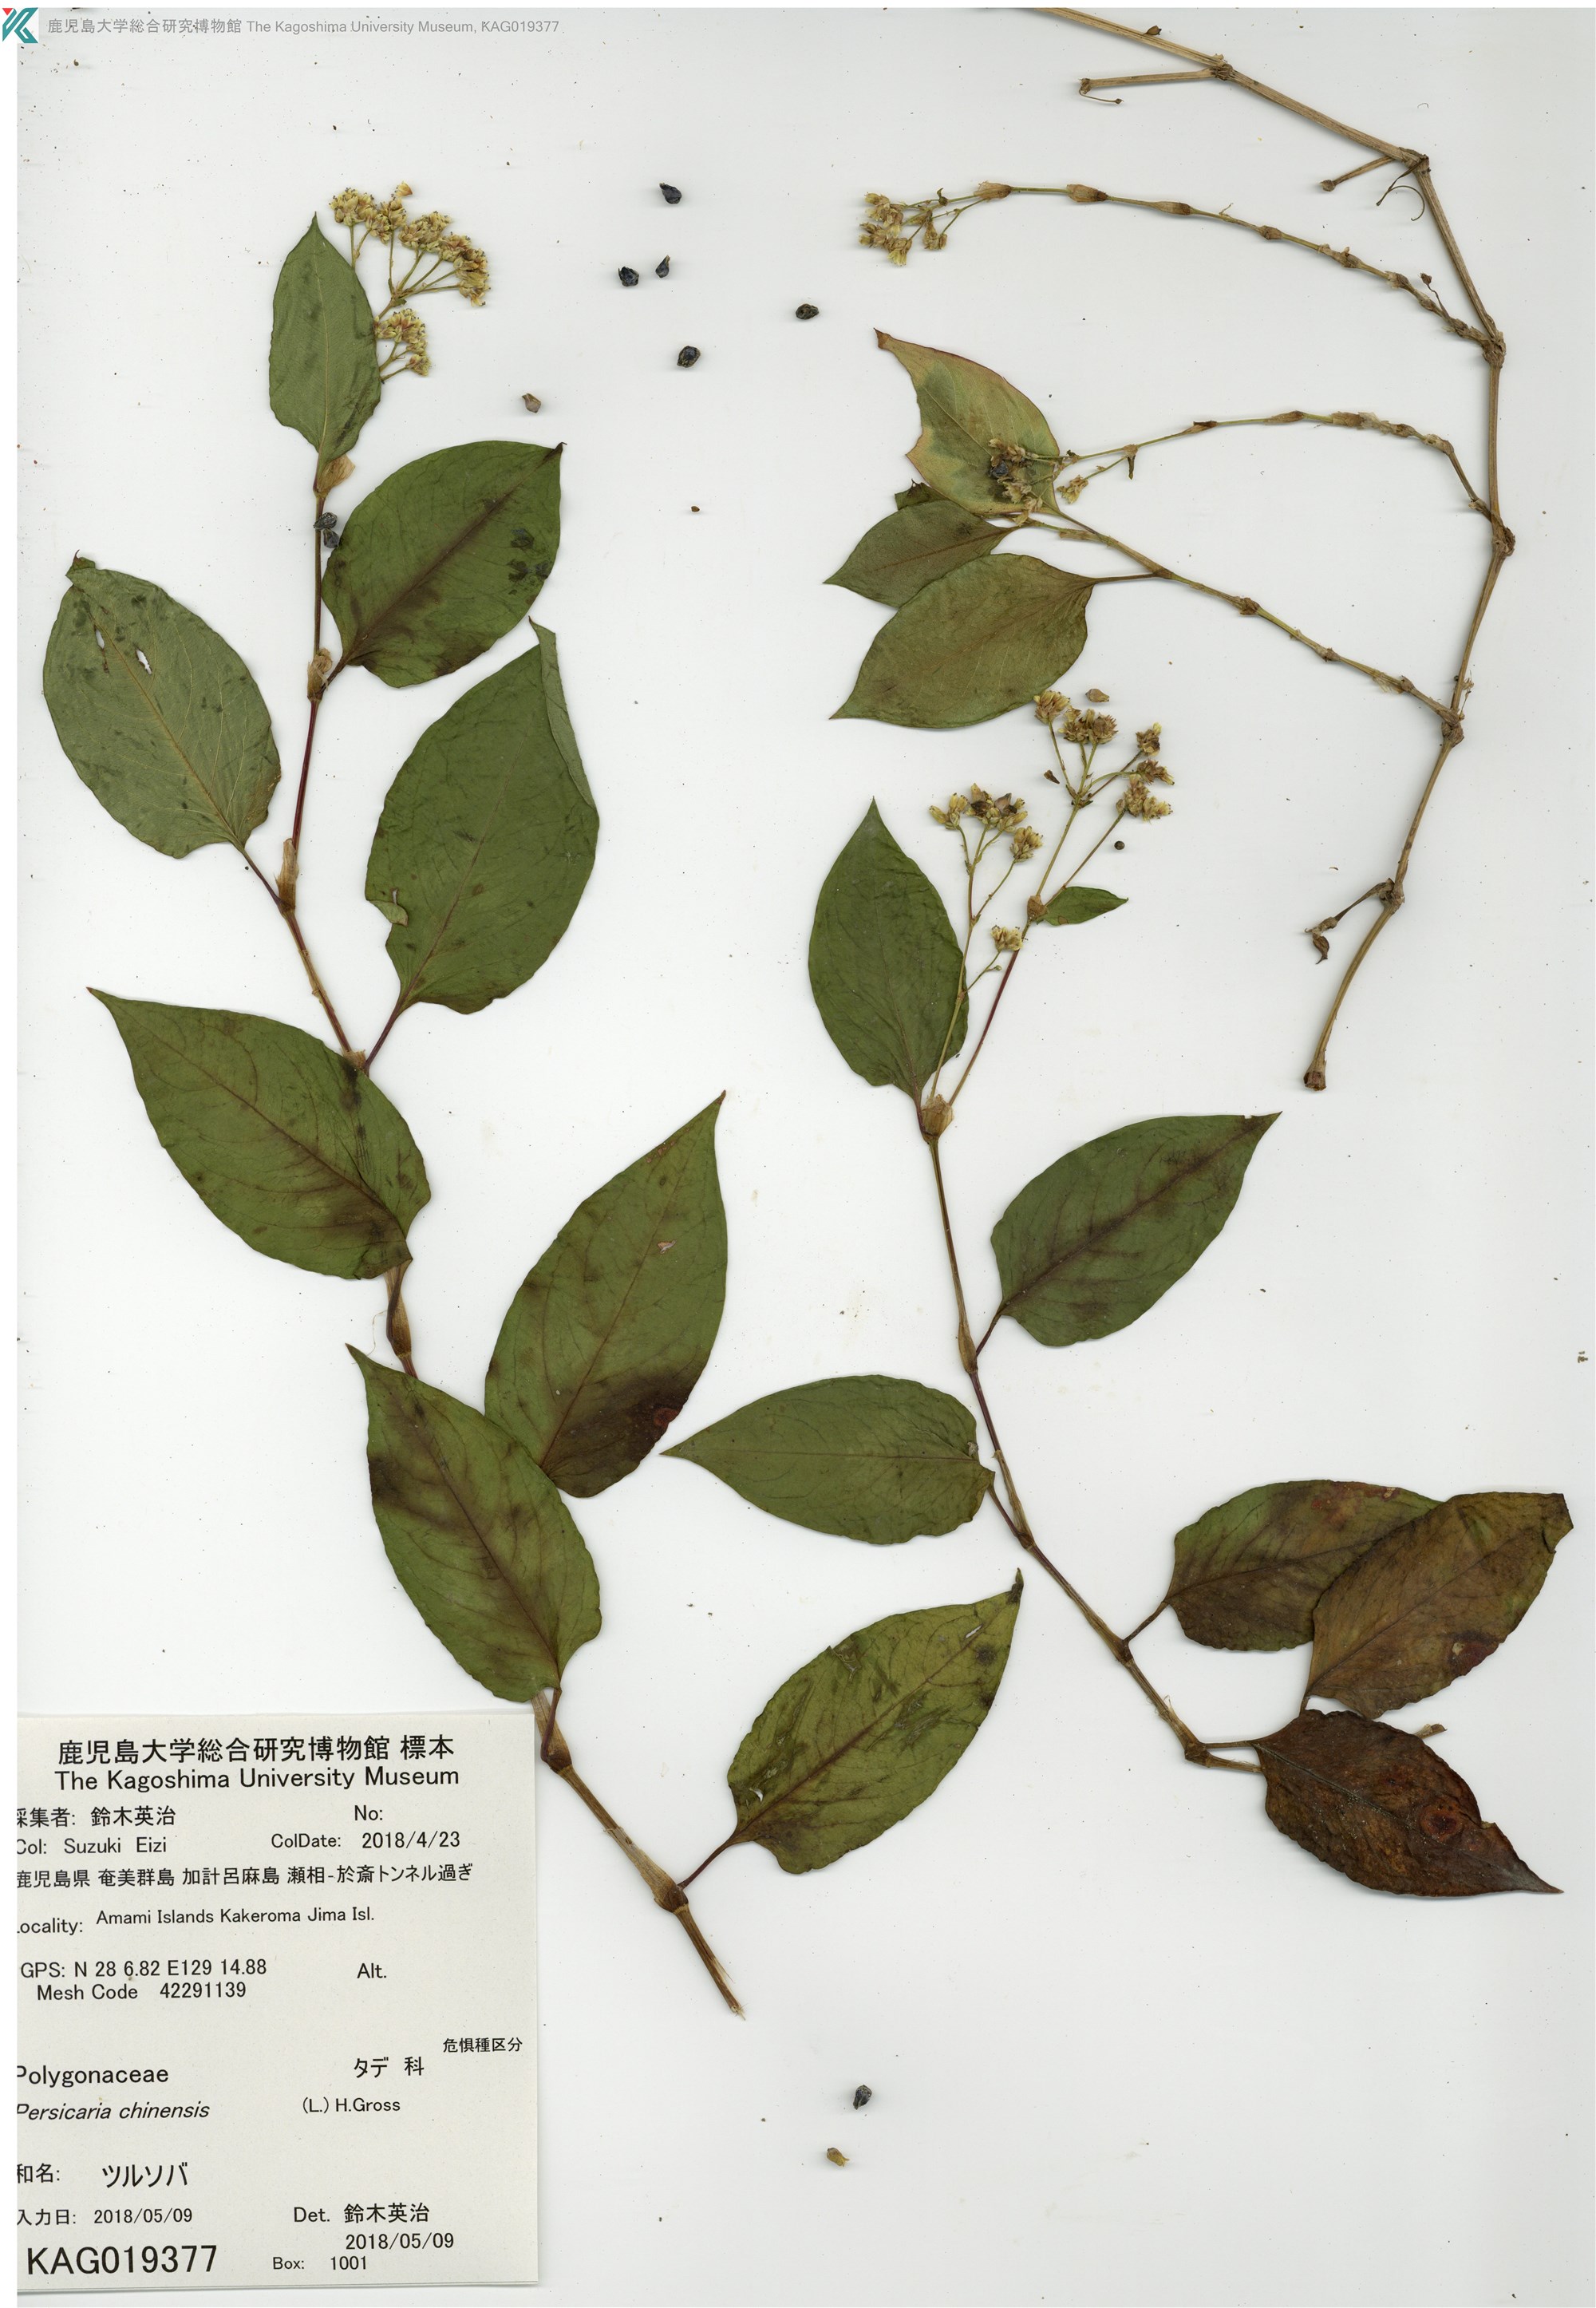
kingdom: Plantae
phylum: Tracheophyta
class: Magnoliopsida
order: Caryophyllales
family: Polygonaceae
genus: Persicaria
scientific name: Persicaria chinensis
